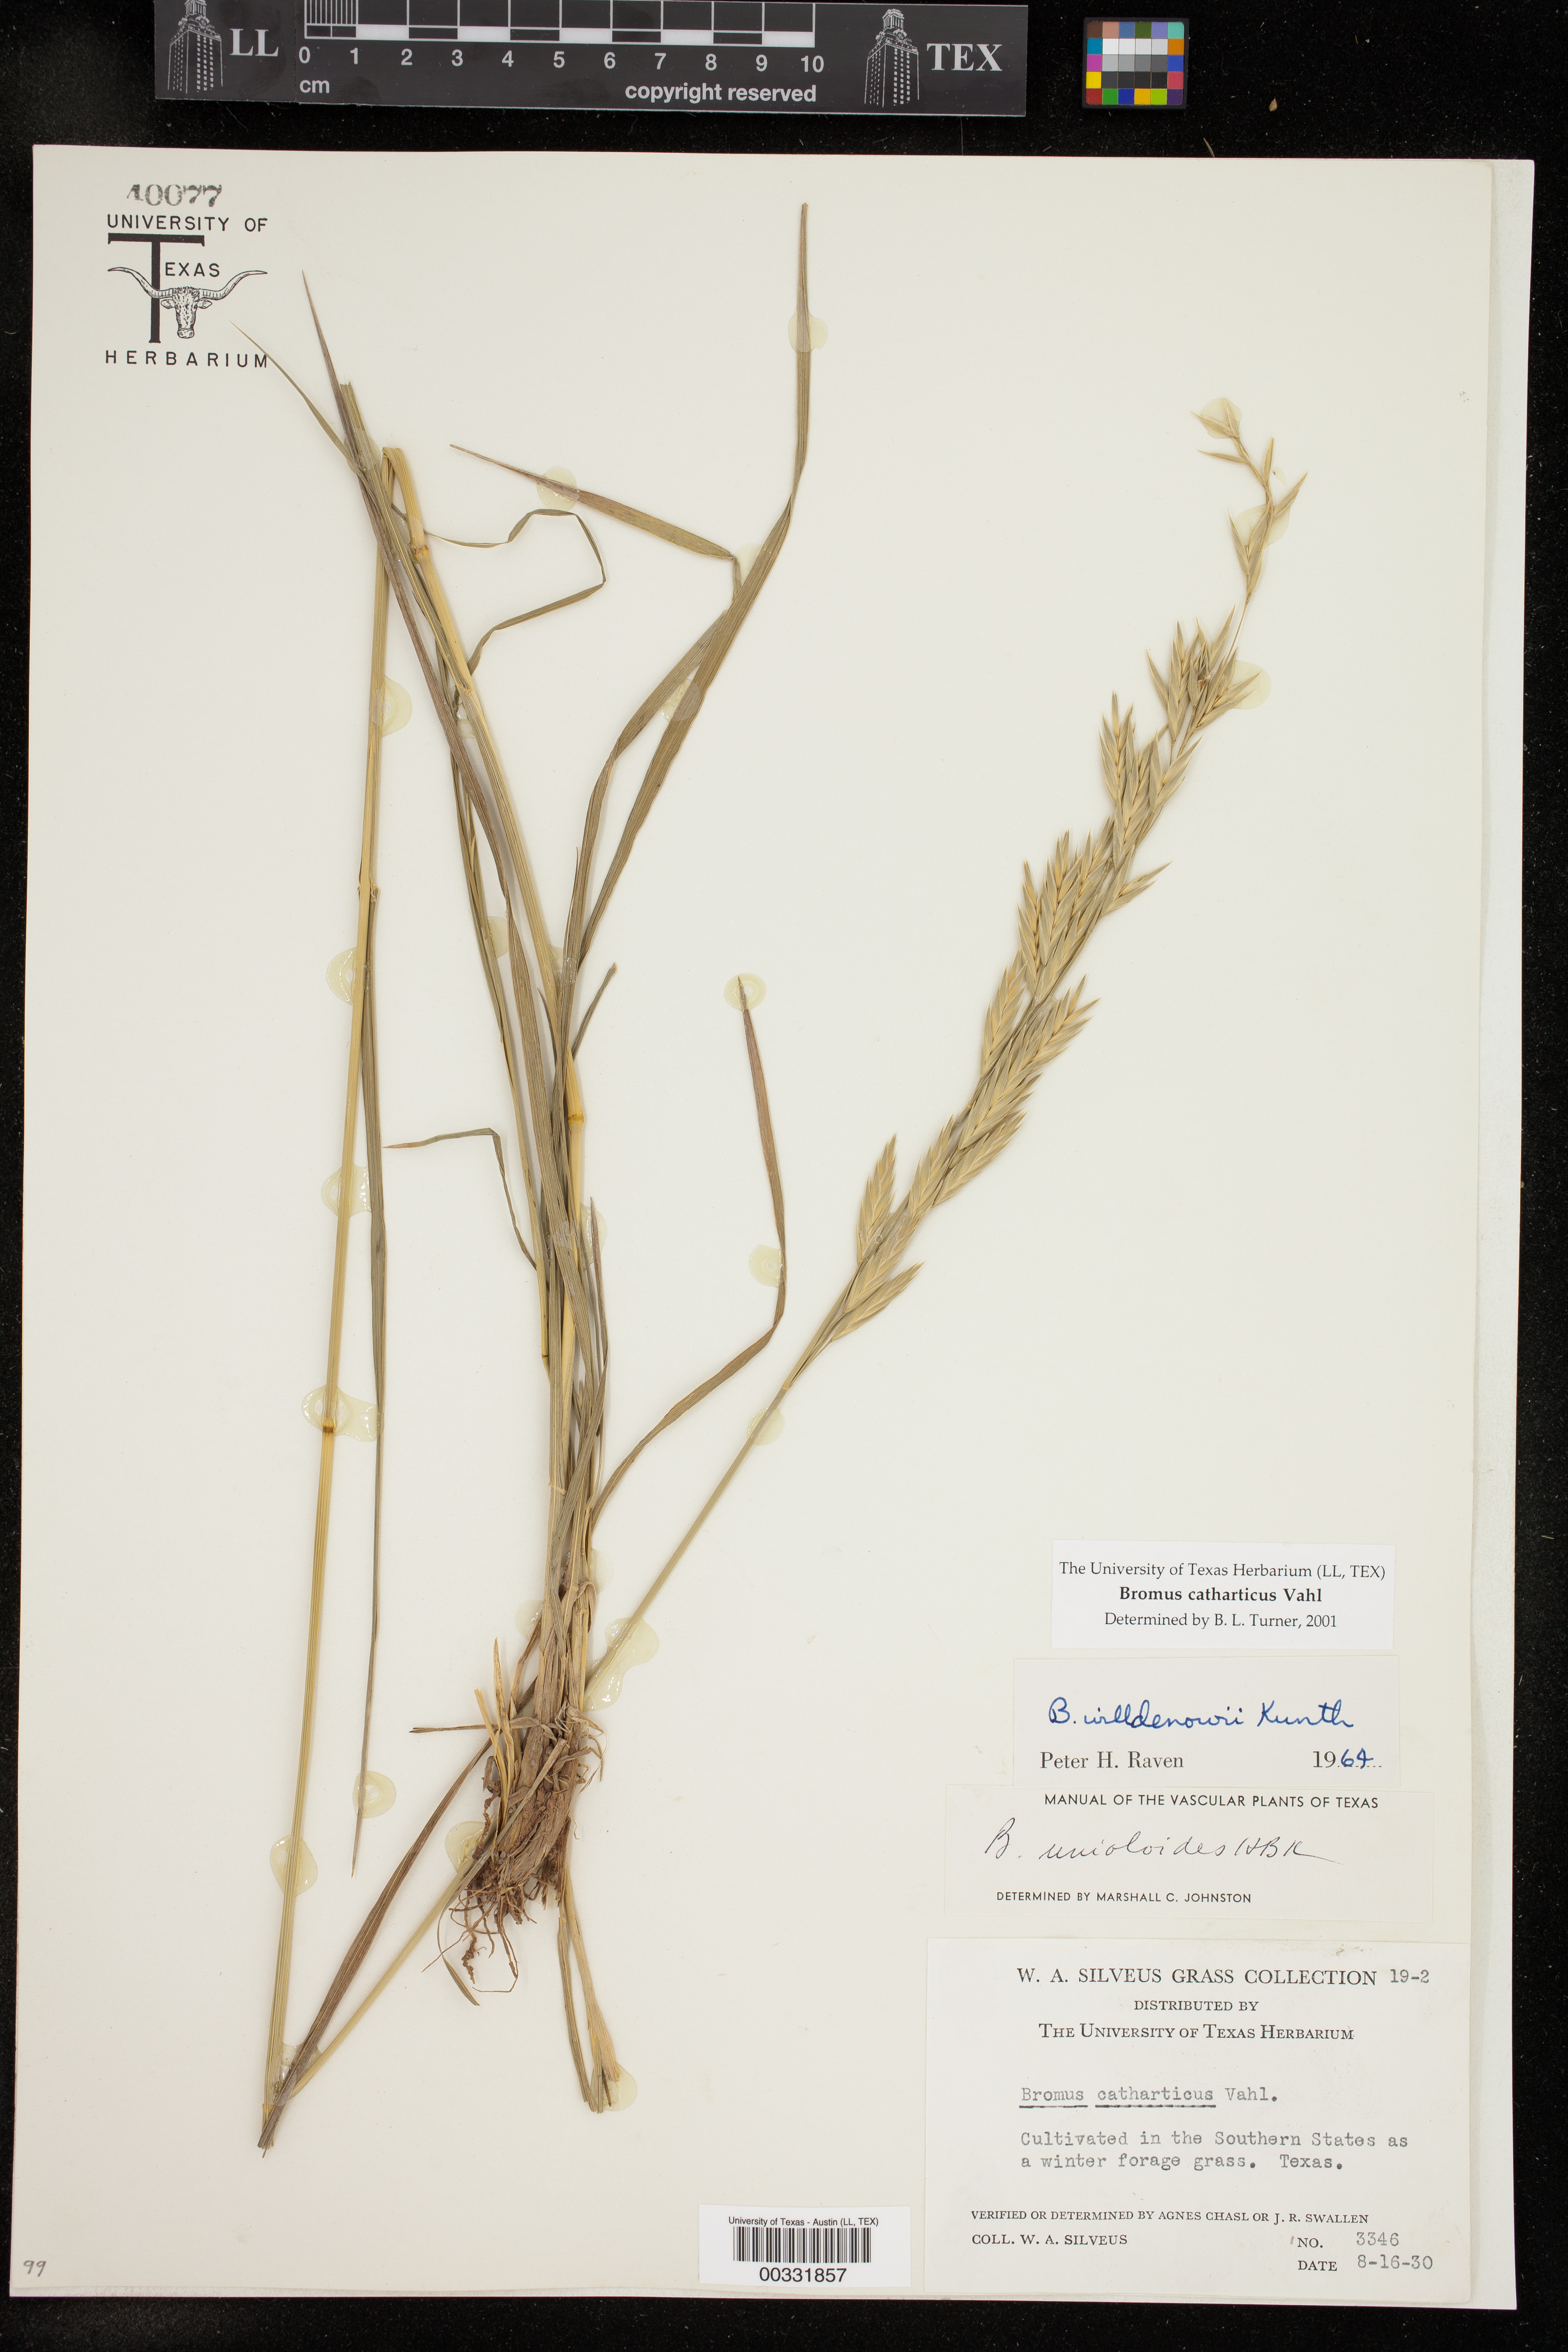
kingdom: Plantae
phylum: Tracheophyta
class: Liliopsida
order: Poales
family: Poaceae
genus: Bromus
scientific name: Bromus catharticus
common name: Rescuegrass
